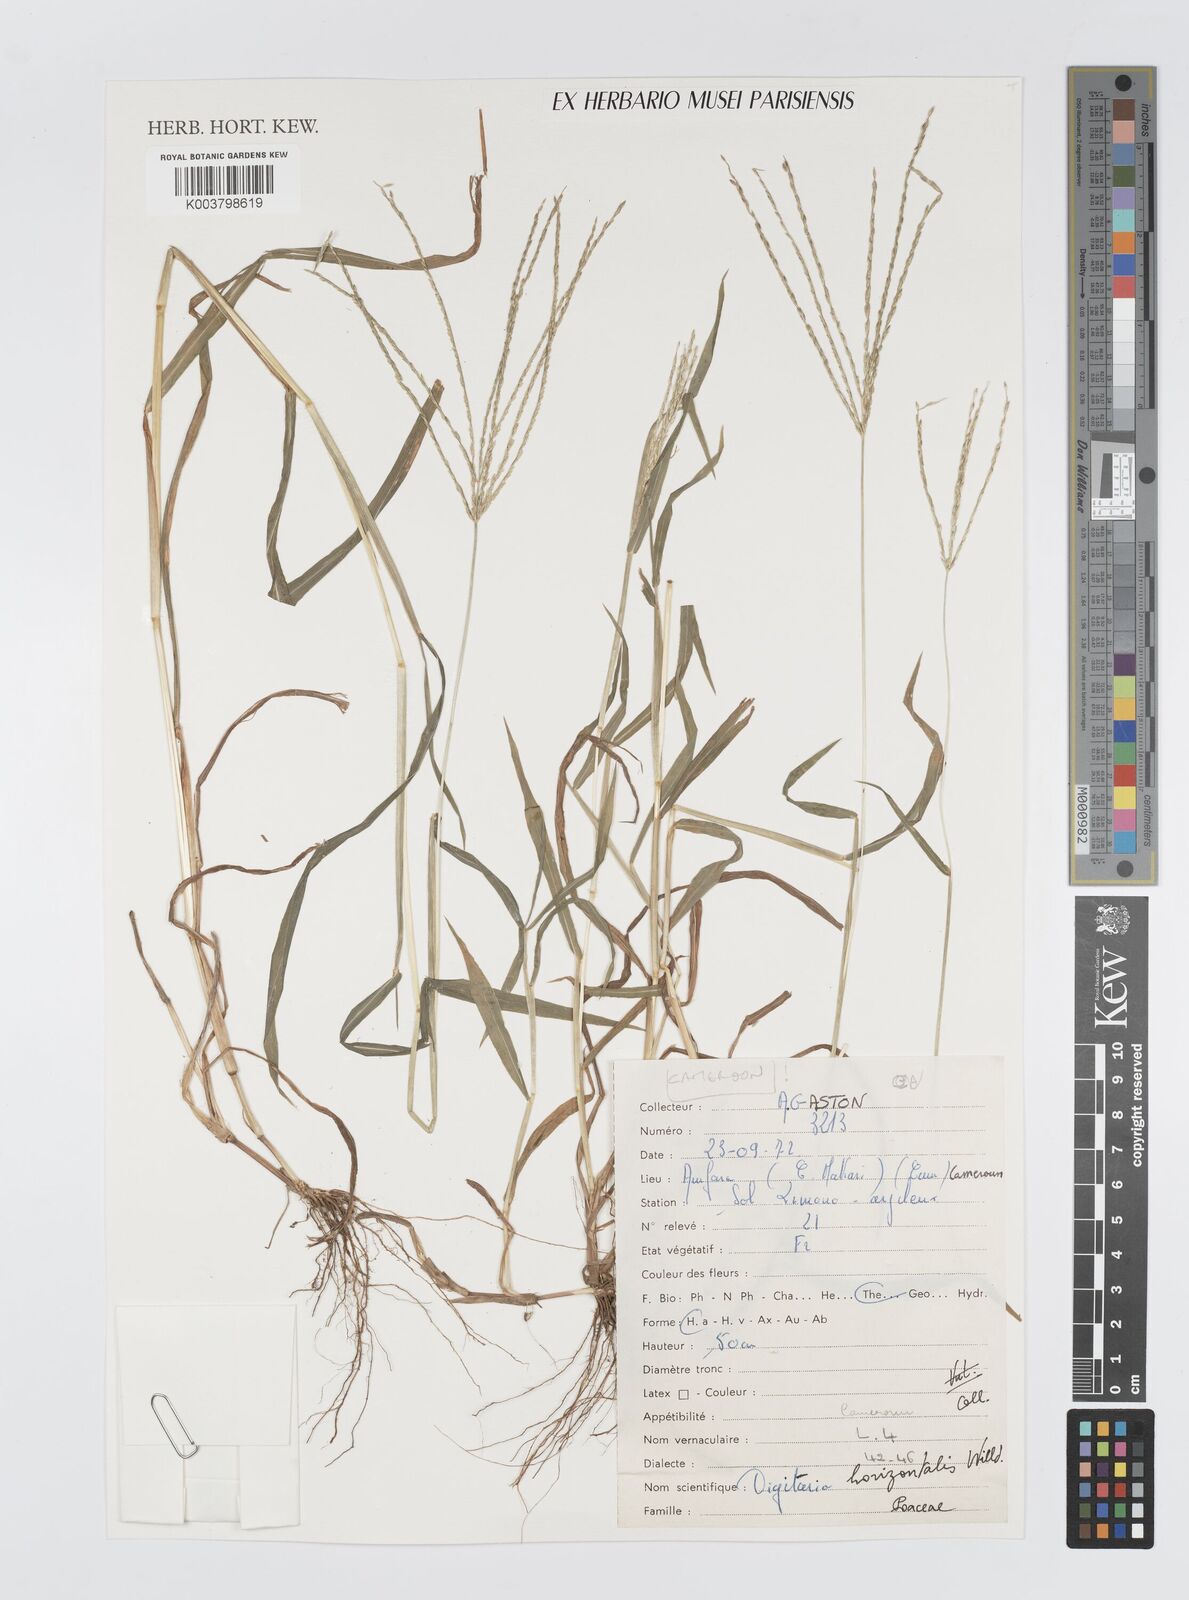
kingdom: Plantae
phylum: Tracheophyta
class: Liliopsida
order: Poales
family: Poaceae
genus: Digitaria
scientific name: Digitaria horizontalis
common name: Jamaican crabgrass
